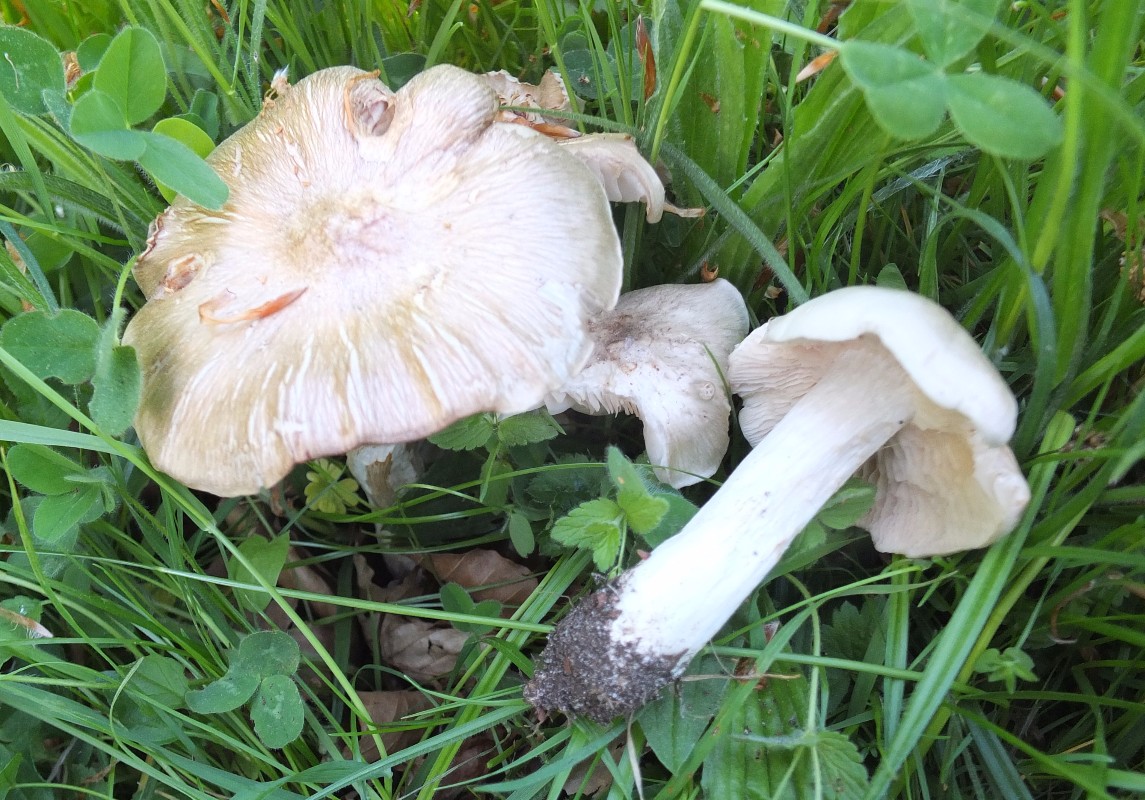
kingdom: Fungi
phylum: Basidiomycota
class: Agaricomycetes
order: Agaricales
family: Entolomataceae
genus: Entoloma
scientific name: Entoloma sepium
